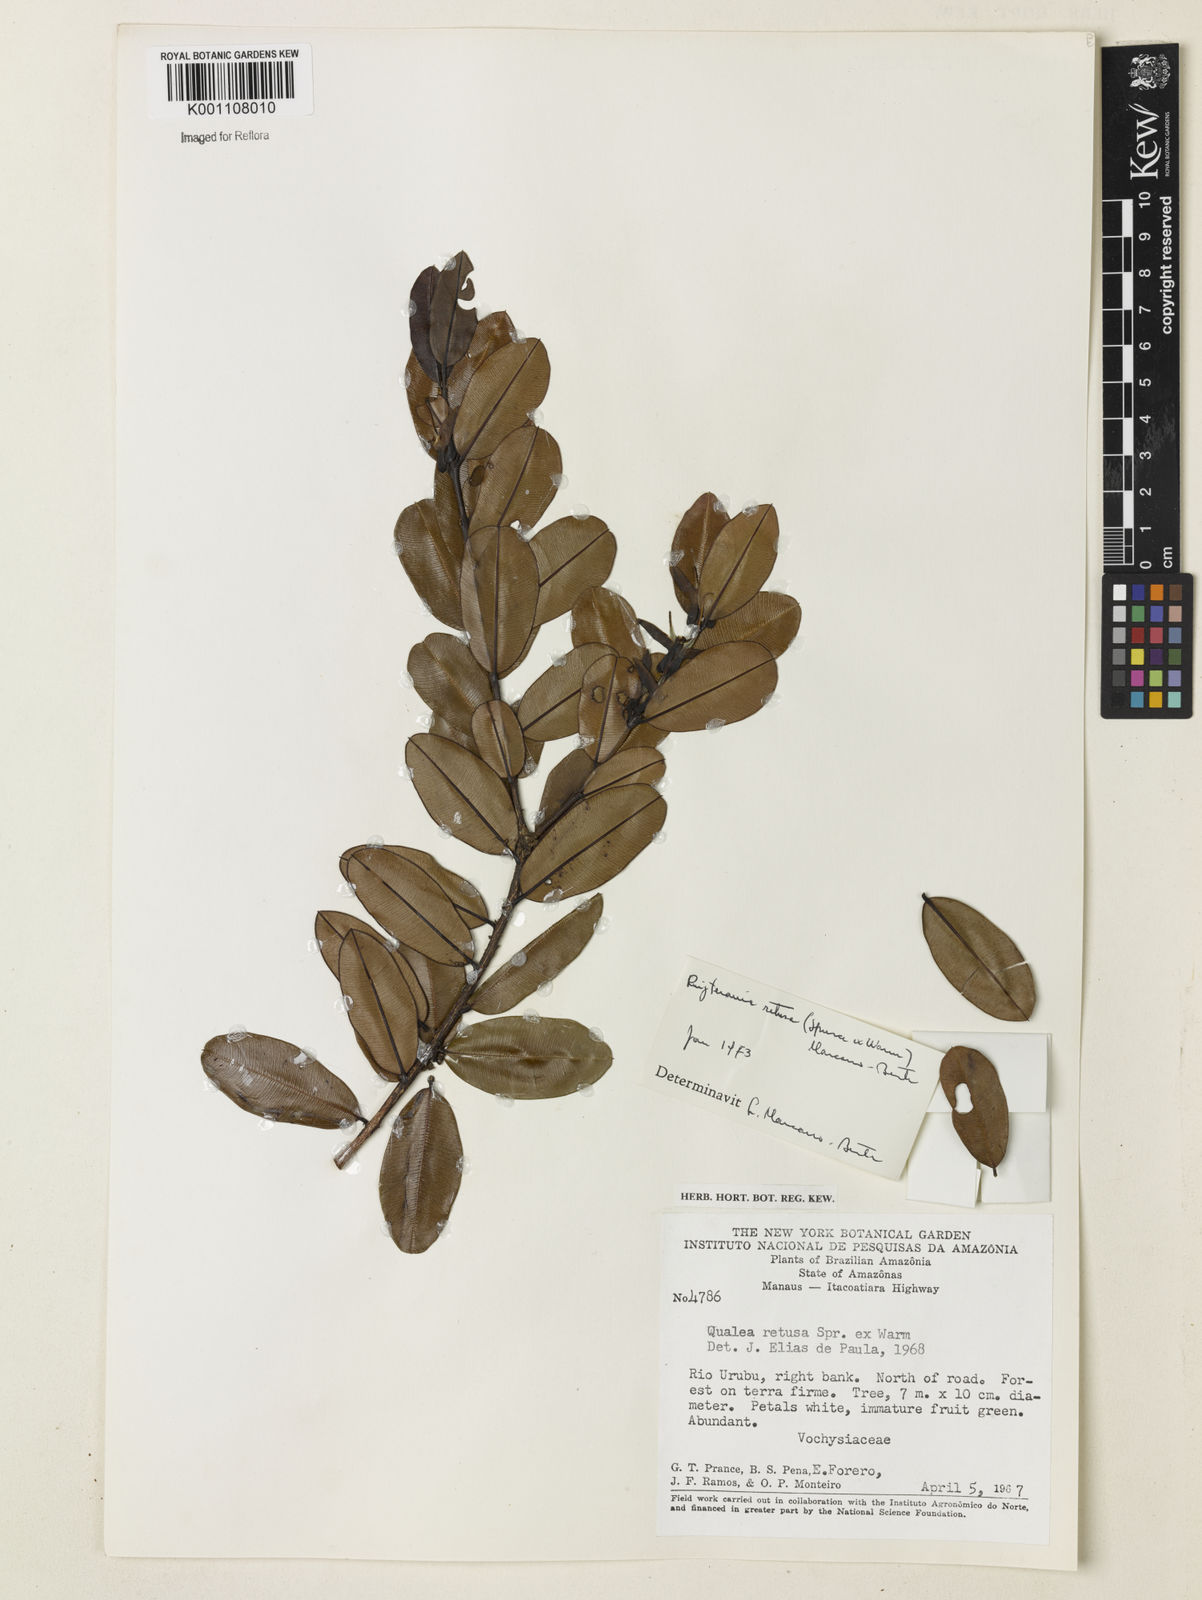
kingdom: Plantae
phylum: Tracheophyta
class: Magnoliopsida
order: Myrtales
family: Vochysiaceae
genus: Ruizterania
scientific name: Ruizterania retusa
